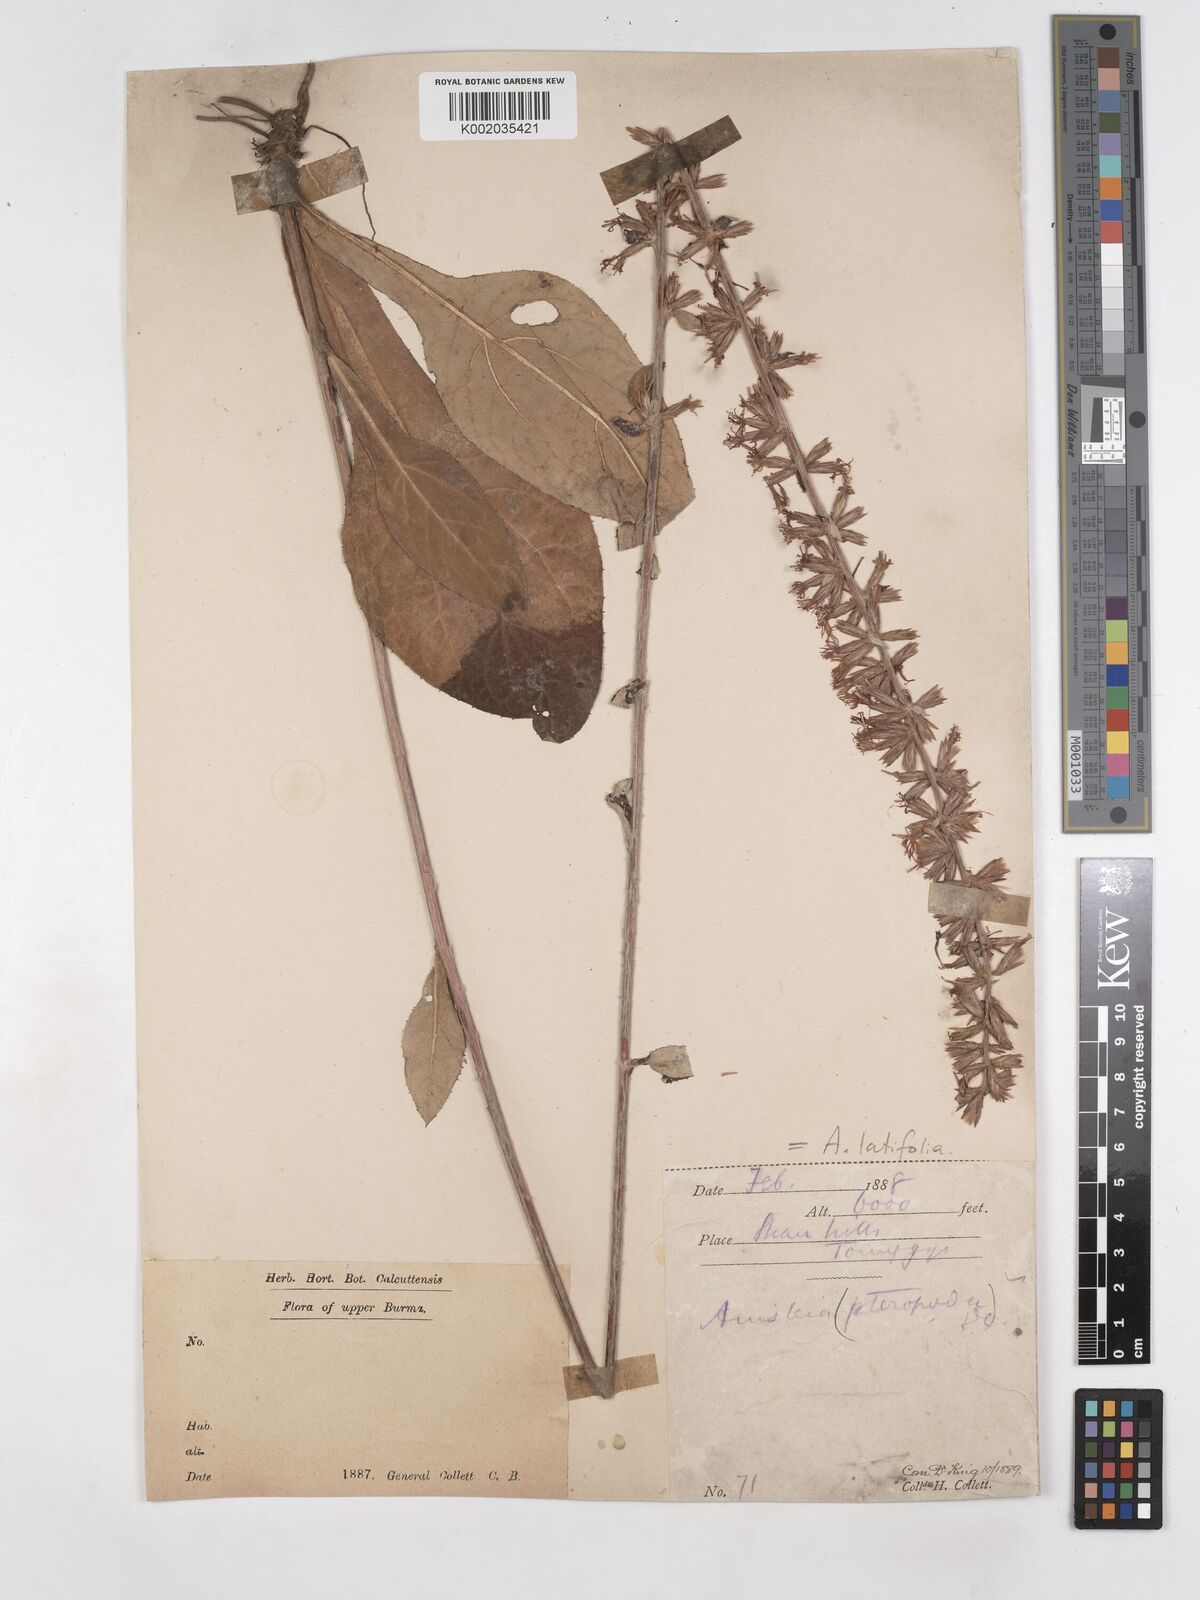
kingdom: Plantae
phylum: Tracheophyta
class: Magnoliopsida
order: Asterales
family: Asteraceae
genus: Ainsliaea
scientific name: Ainsliaea latifolia
